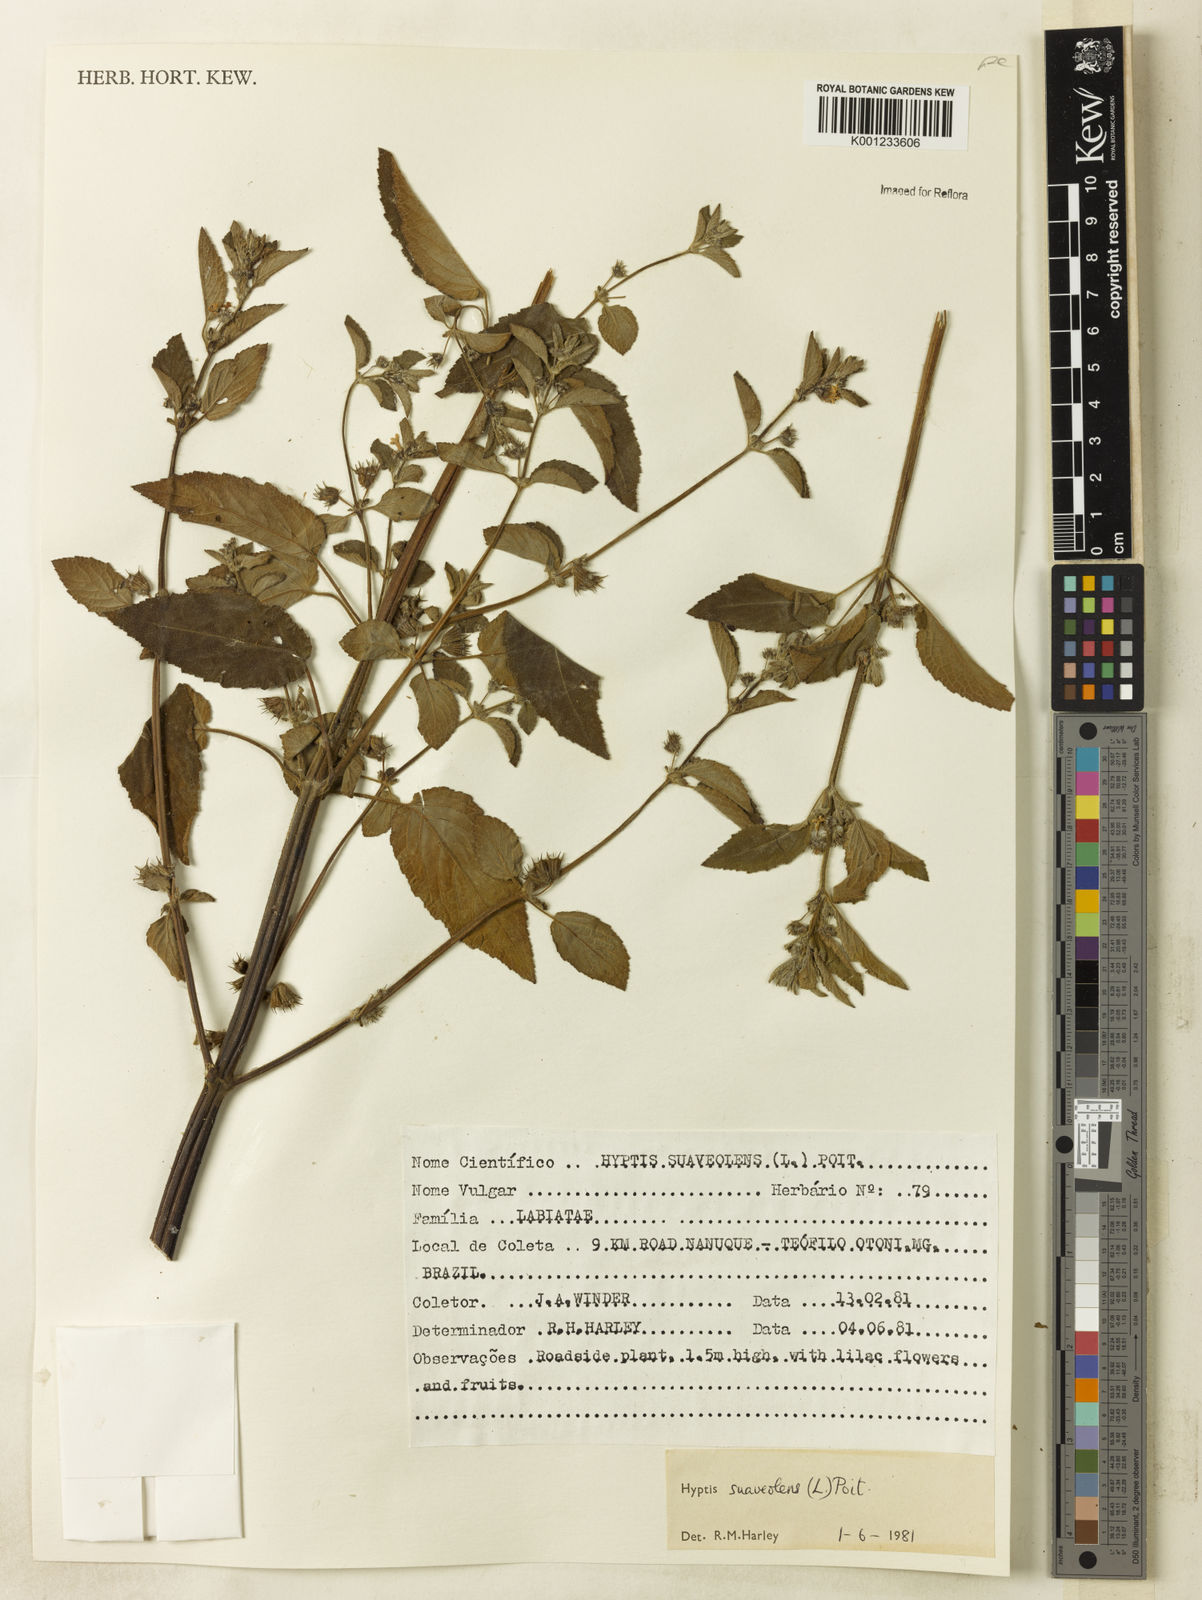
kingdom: Plantae
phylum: Tracheophyta
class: Magnoliopsida
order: Lamiales
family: Lamiaceae
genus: Mesosphaerum
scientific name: Mesosphaerum suaveolens
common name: Pignut
